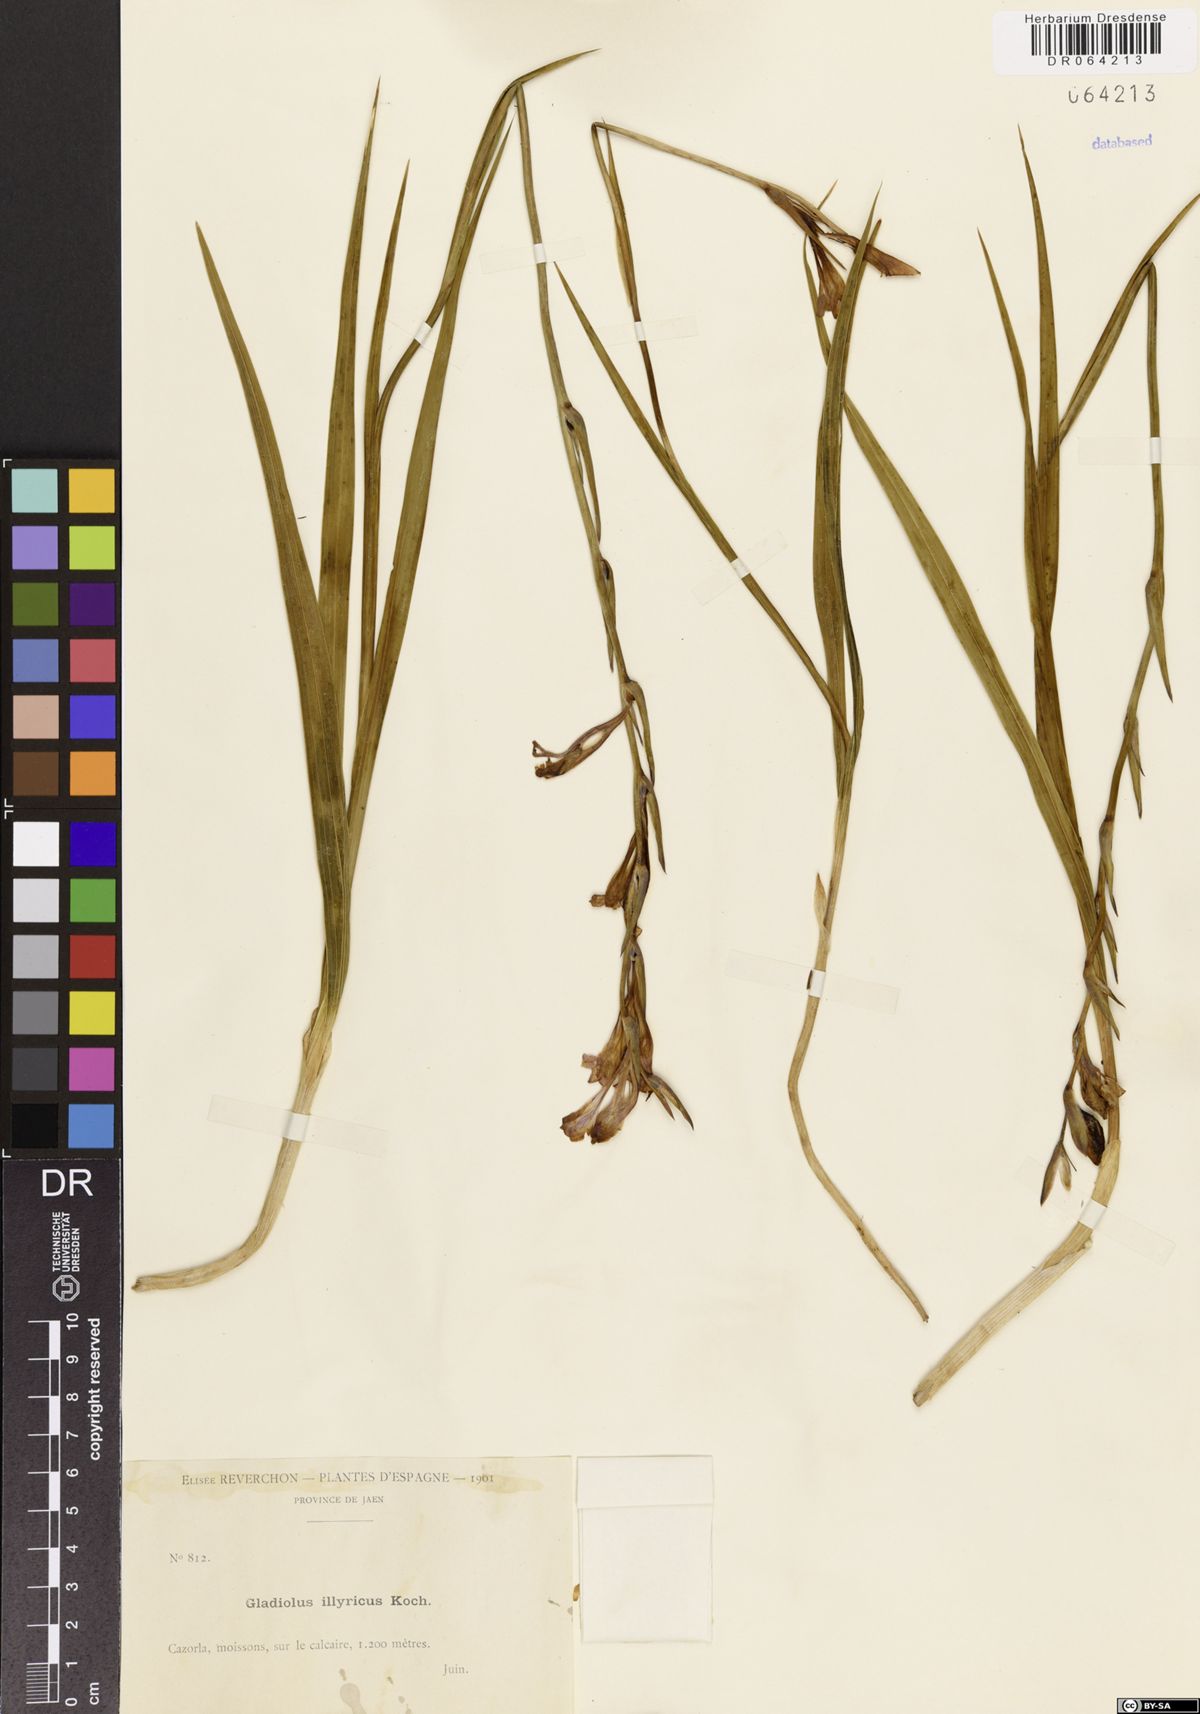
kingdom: Plantae
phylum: Tracheophyta
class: Liliopsida
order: Asparagales
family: Iridaceae
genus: Gladiolus
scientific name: Gladiolus illyricus
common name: Wild gladiolus
